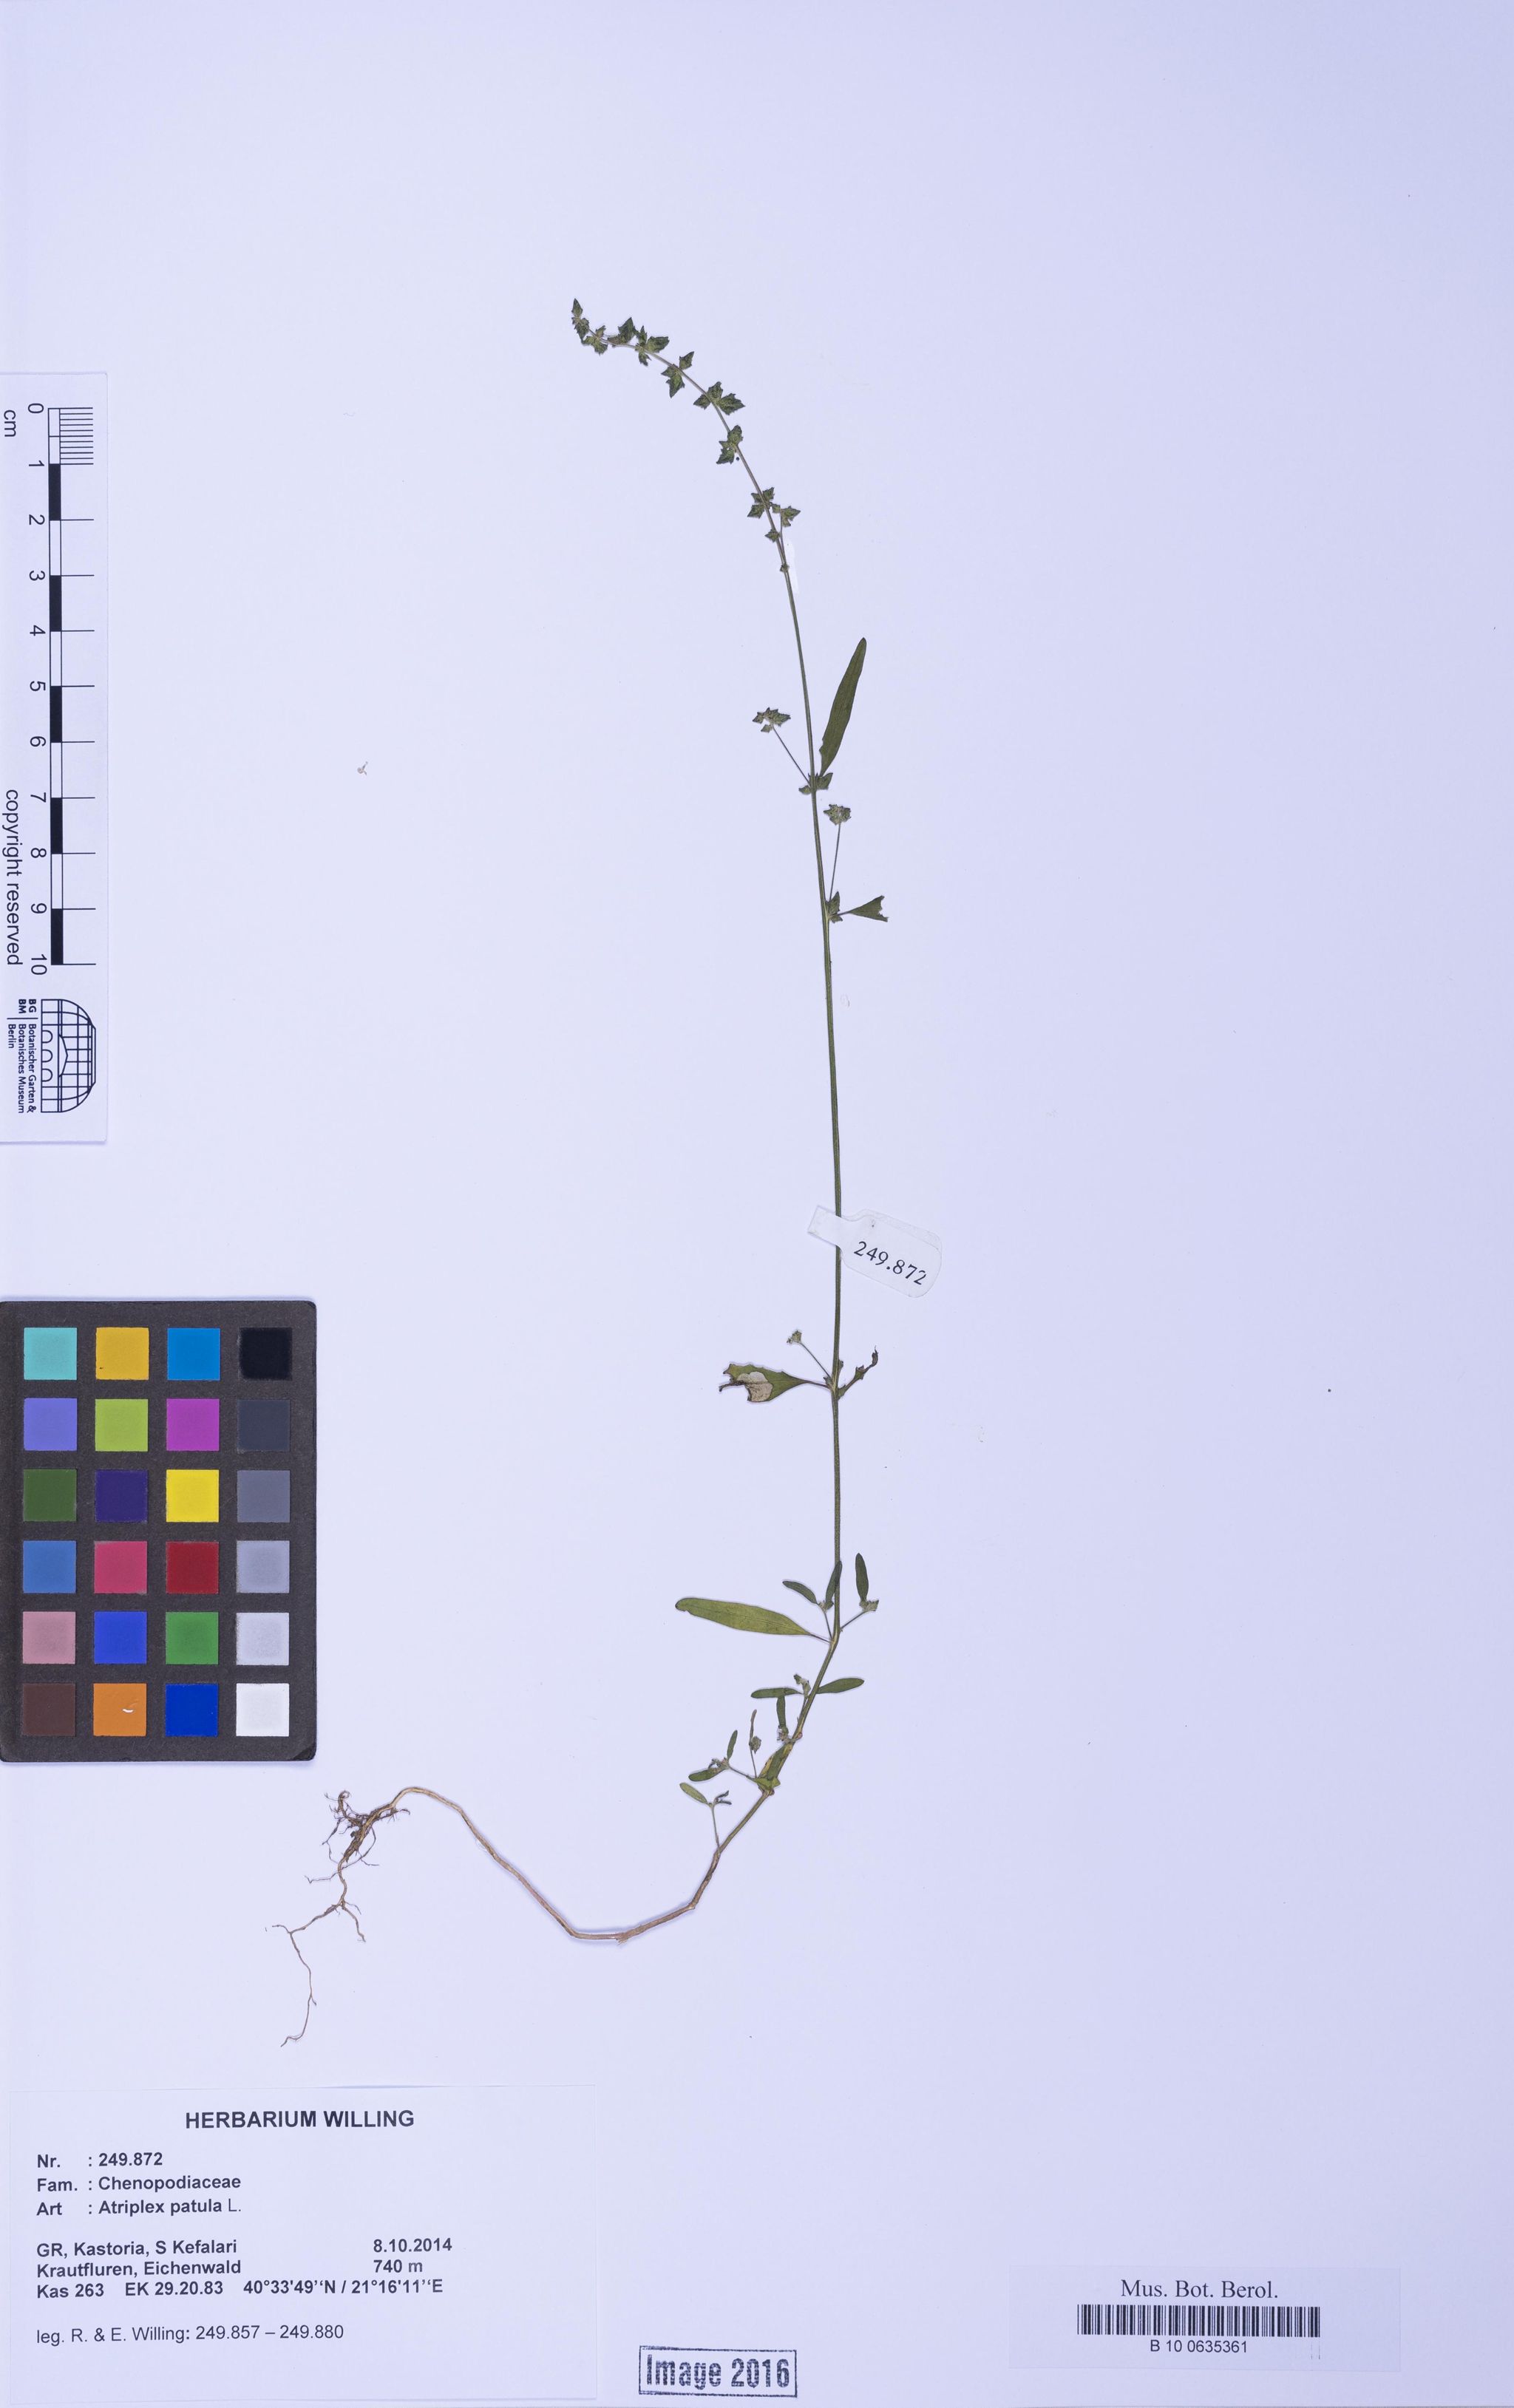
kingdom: Plantae
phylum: Tracheophyta
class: Magnoliopsida
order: Caryophyllales
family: Amaranthaceae
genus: Atriplex
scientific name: Atriplex patula
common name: Common orache
